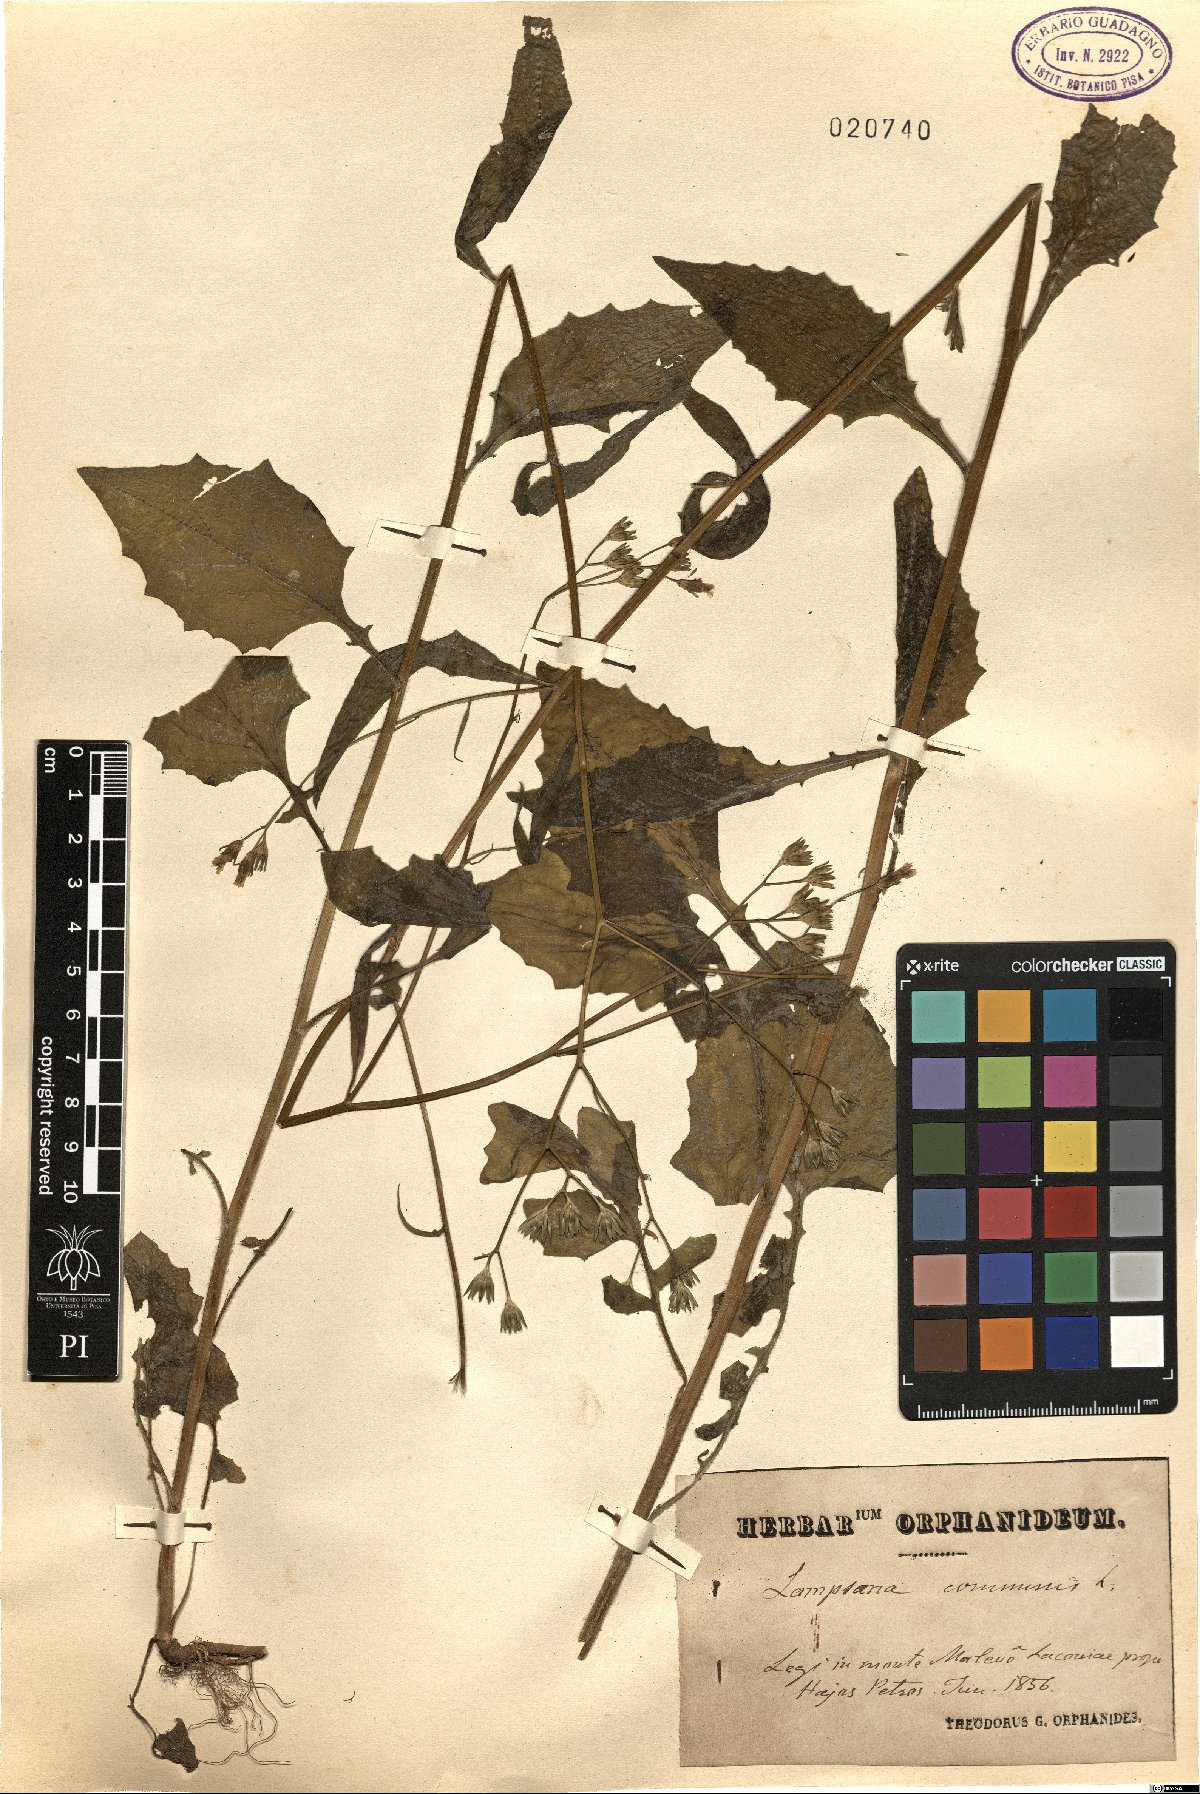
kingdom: Plantae
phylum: Tracheophyta
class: Magnoliopsida
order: Asterales
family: Asteraceae
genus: Lapsana
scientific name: Lapsana communis
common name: Nipplewort
